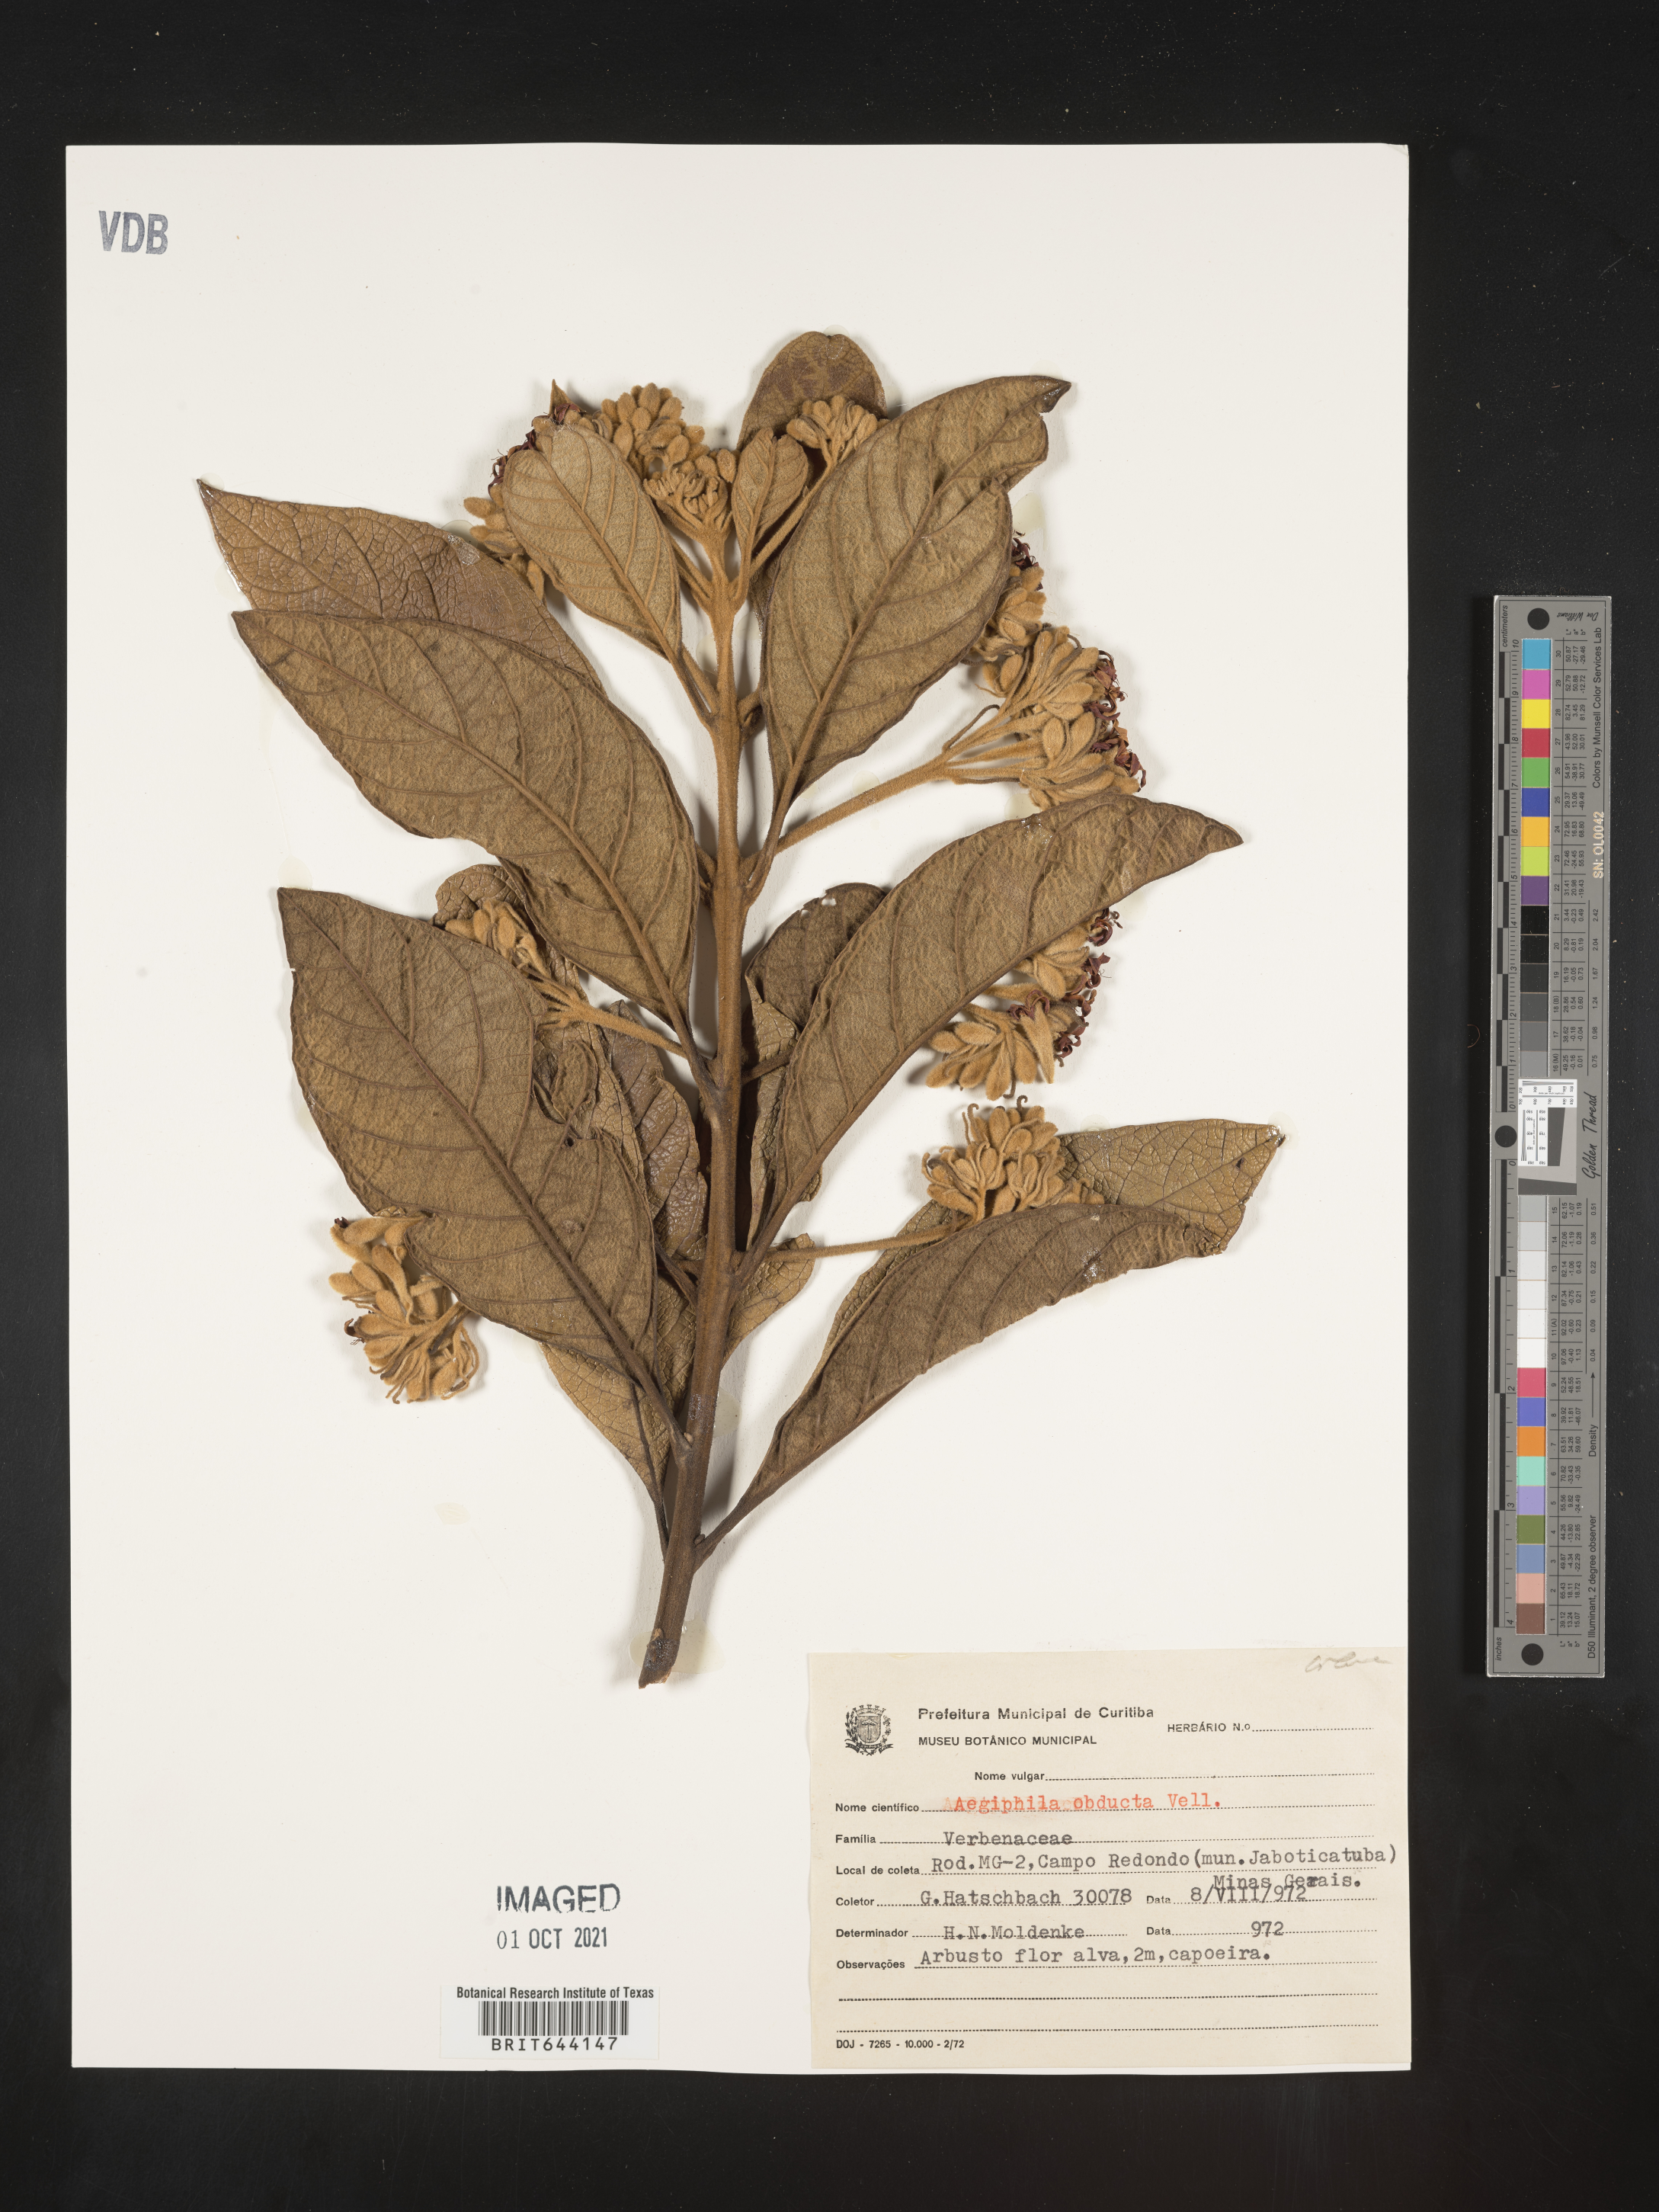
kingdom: Plantae
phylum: Tracheophyta
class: Magnoliopsida
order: Lamiales
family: Lamiaceae
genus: Aegiphila
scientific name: Aegiphila
